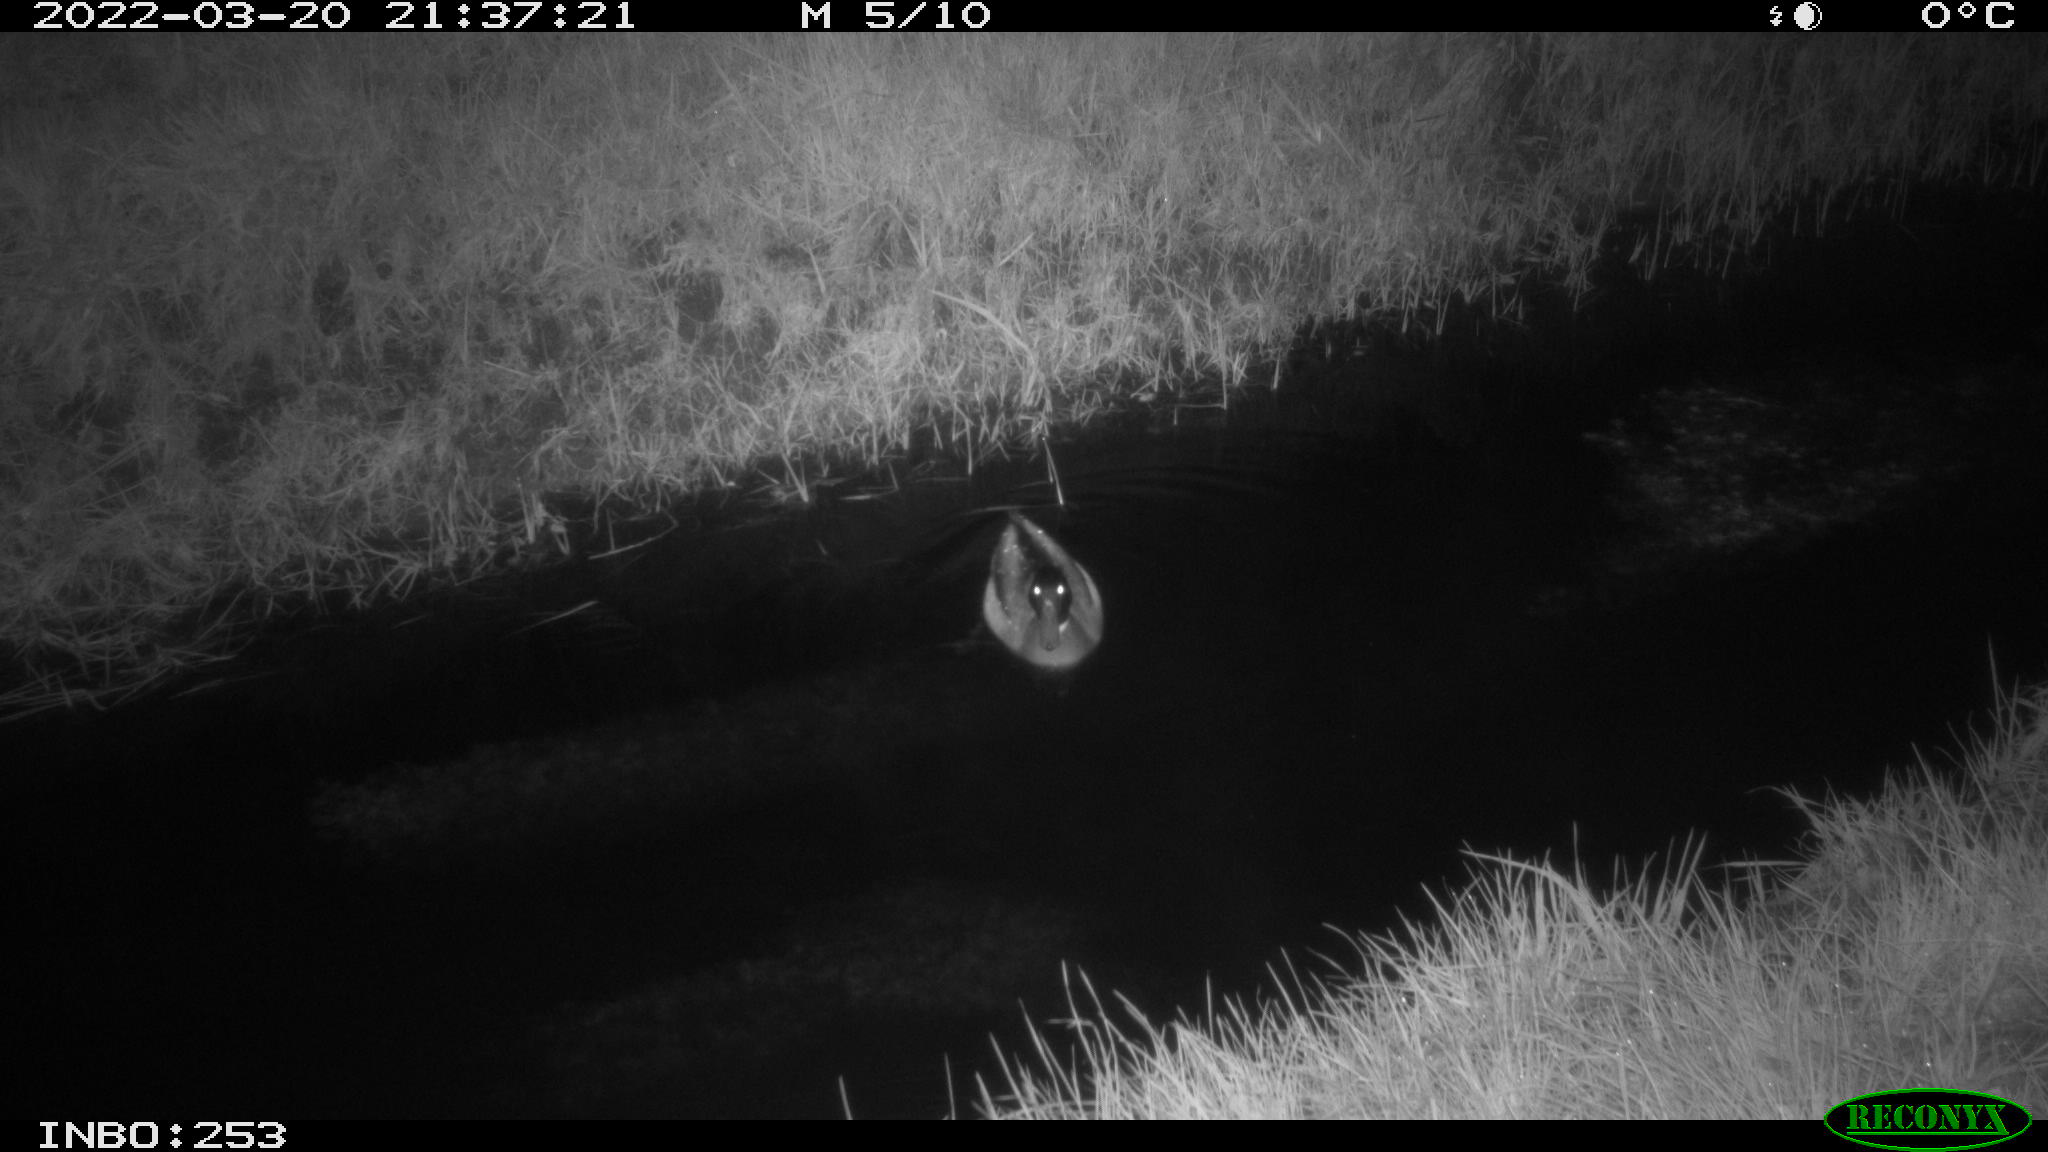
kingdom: Animalia
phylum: Chordata
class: Aves
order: Anseriformes
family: Anatidae
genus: Anas
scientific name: Anas platyrhynchos
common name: Mallard
